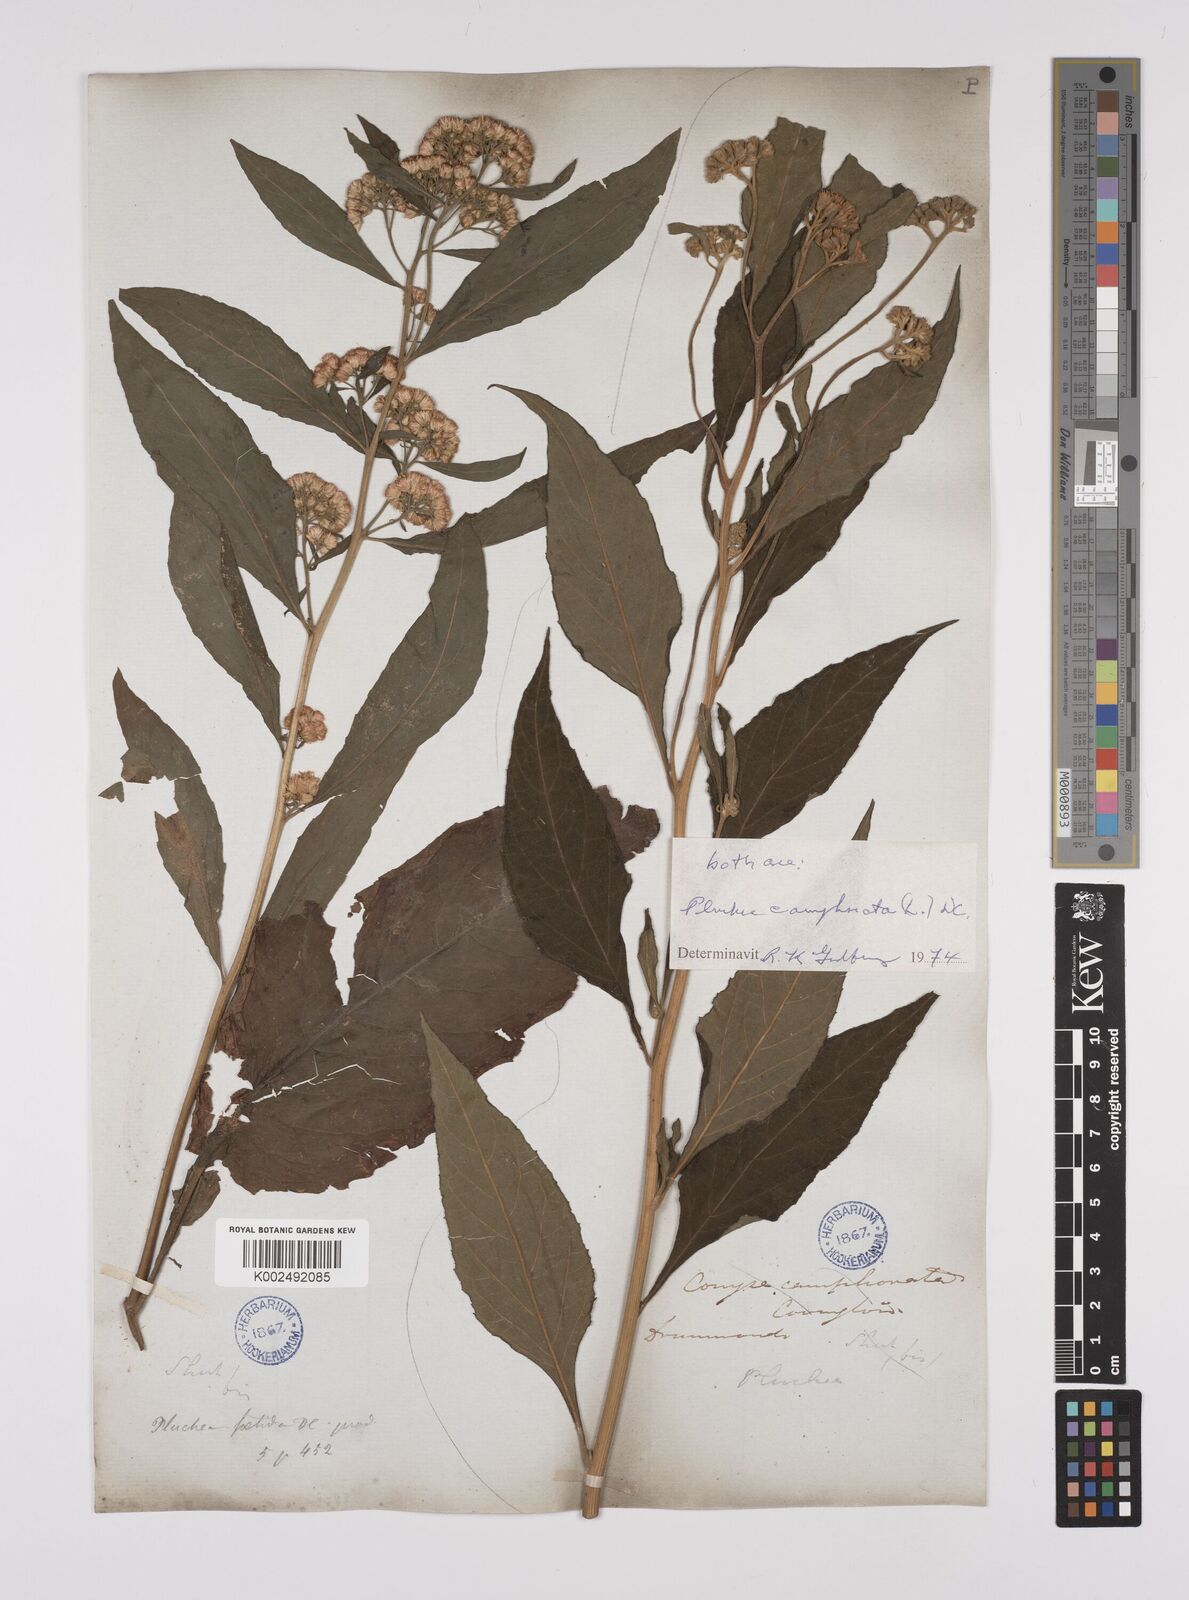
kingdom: Plantae
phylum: Tracheophyta
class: Magnoliopsida
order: Asterales
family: Asteraceae
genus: Pluchea
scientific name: Pluchea camphorata
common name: Camphor pluchea
